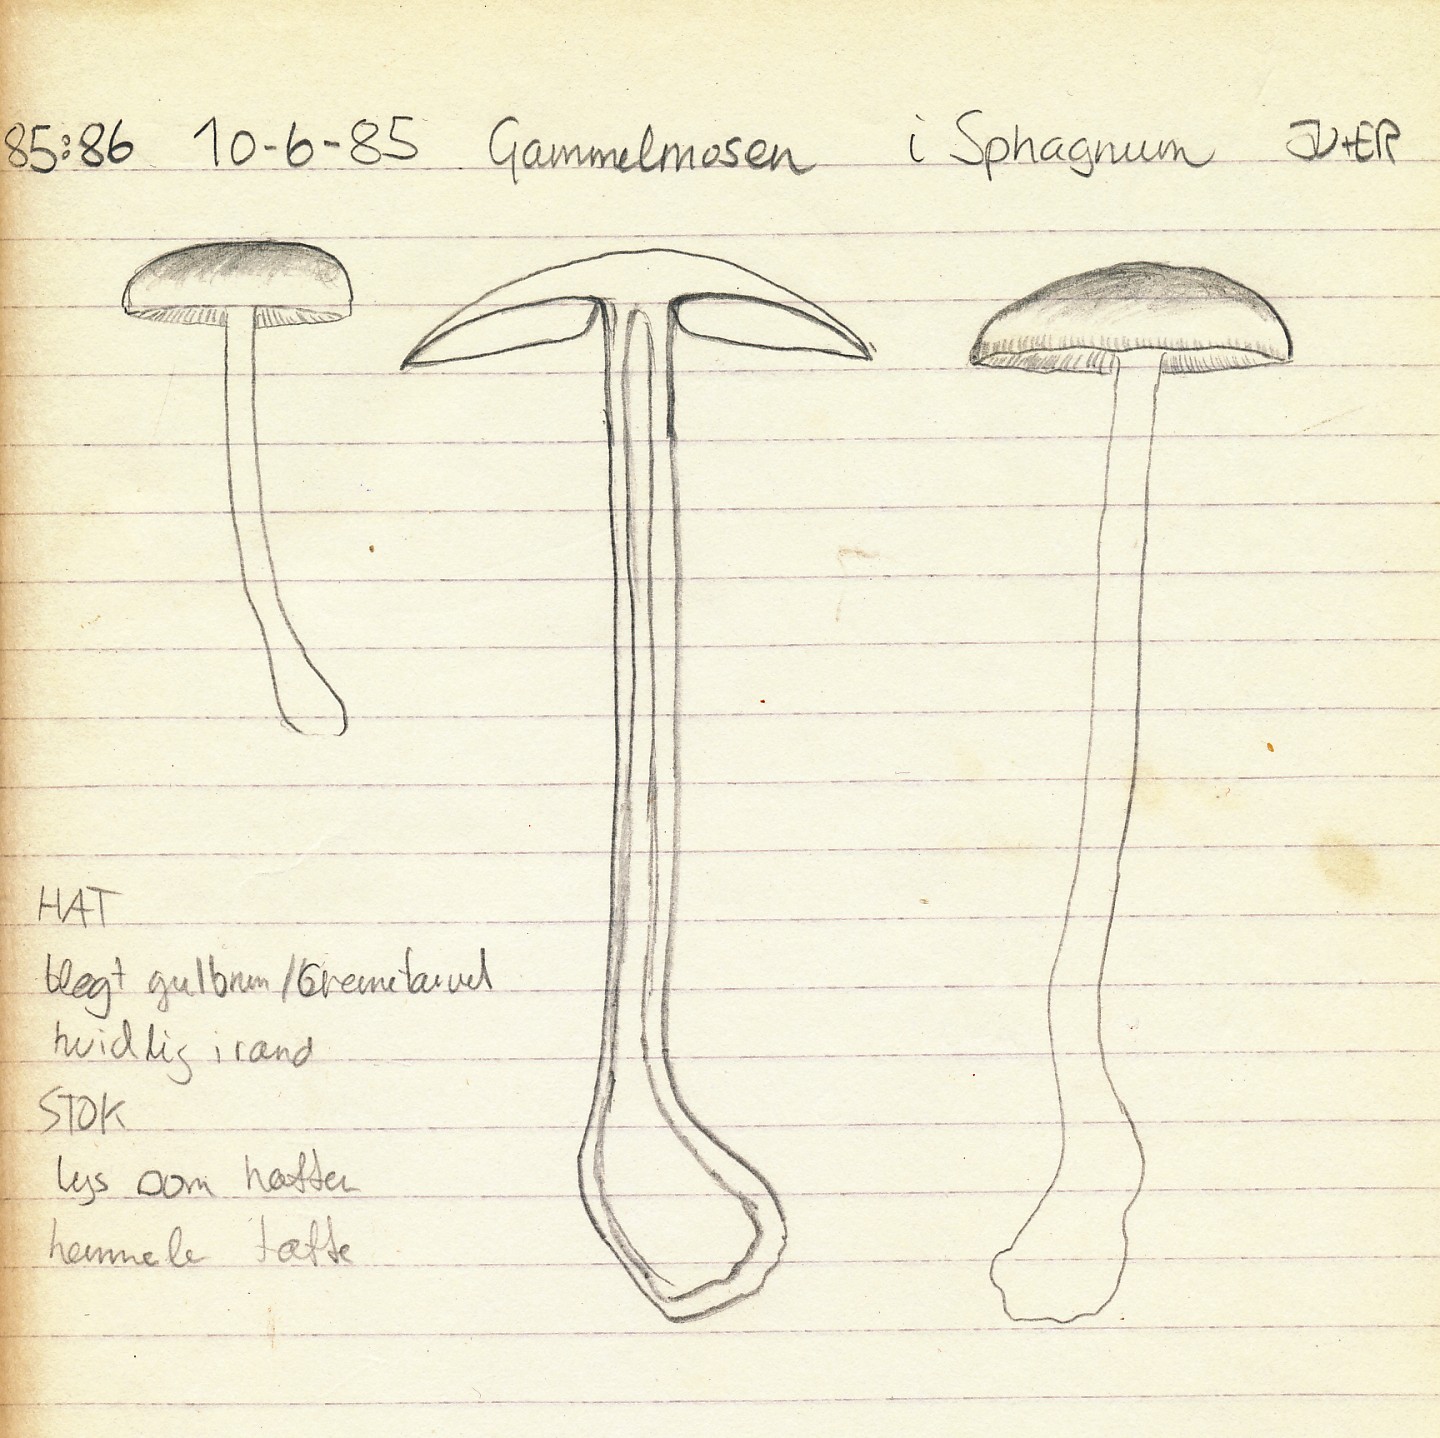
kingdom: Fungi
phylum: Basidiomycota
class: Agaricomycetes
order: Agaricales
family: Omphalotaceae
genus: Gymnopus
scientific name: Gymnopus aquosus
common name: bleg fladhat
